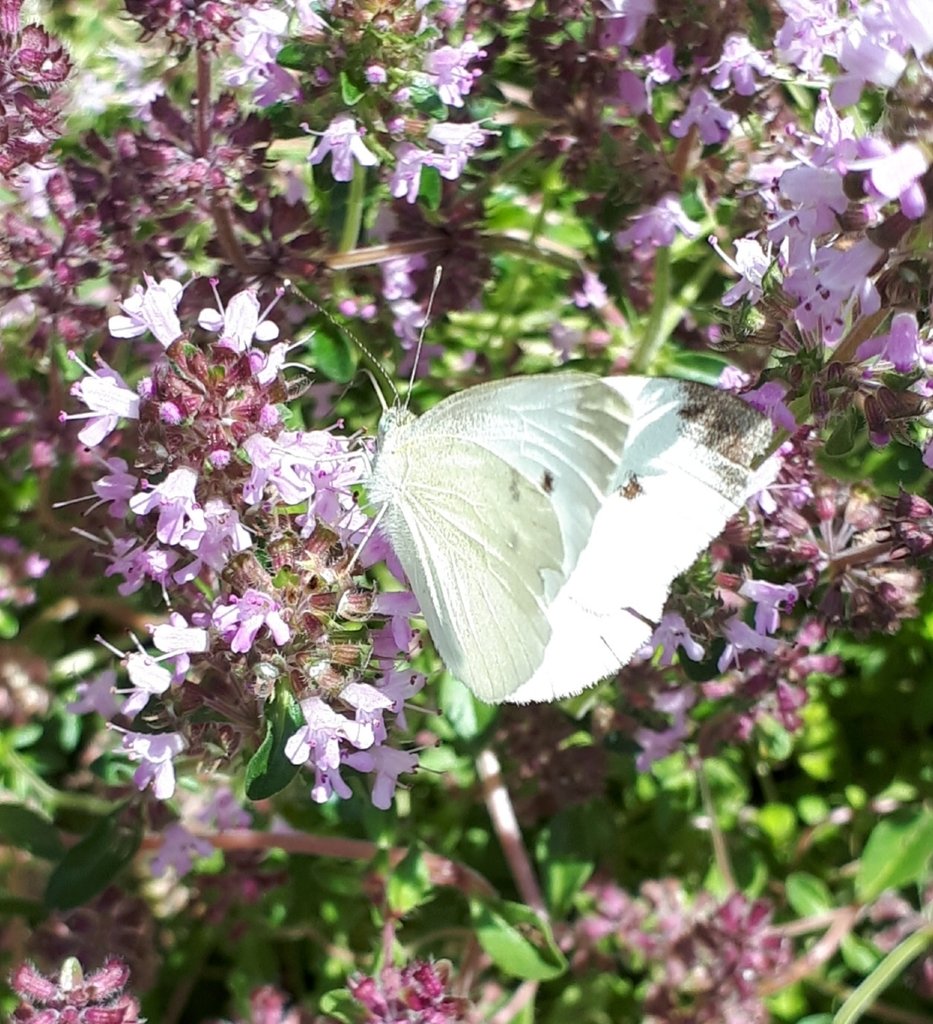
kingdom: Animalia
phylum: Arthropoda
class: Insecta
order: Lepidoptera
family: Pieridae
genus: Pieris
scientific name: Pieris rapae
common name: Cabbage White
